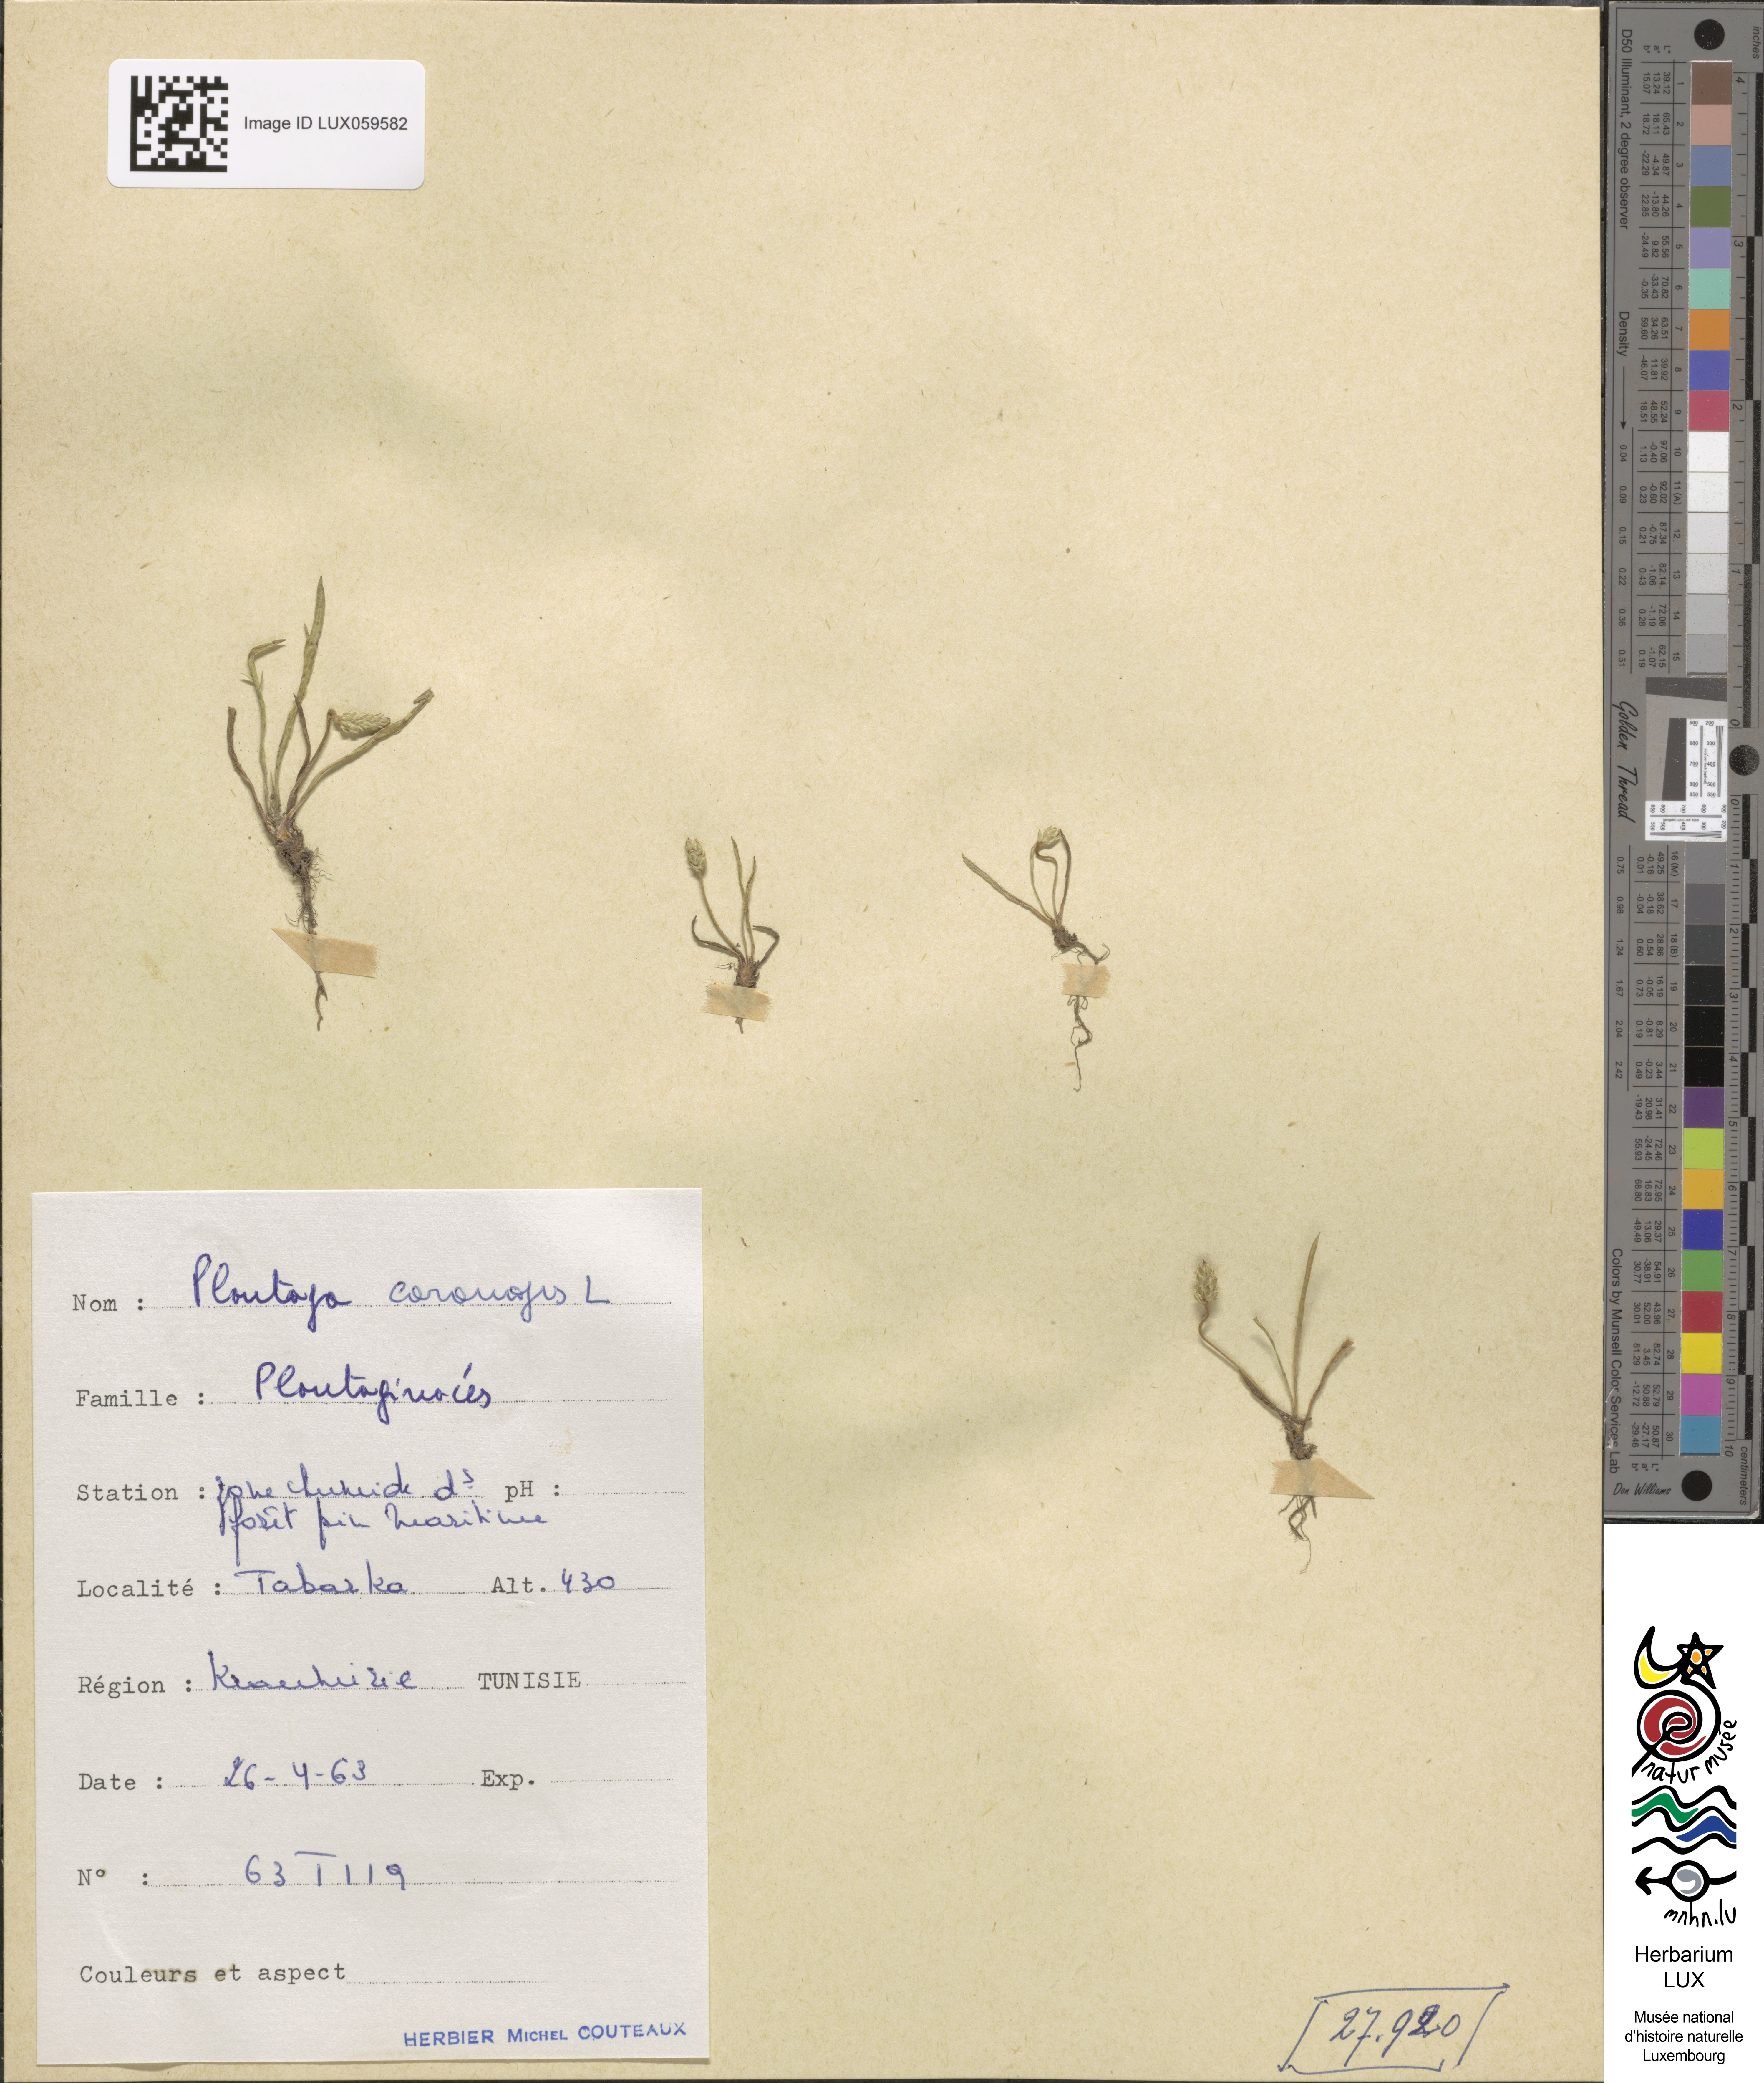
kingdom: Plantae
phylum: Tracheophyta
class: Magnoliopsida
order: Lamiales
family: Plantaginaceae
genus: Plantago
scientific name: Plantago coronopus
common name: Buck's-horn plantain
